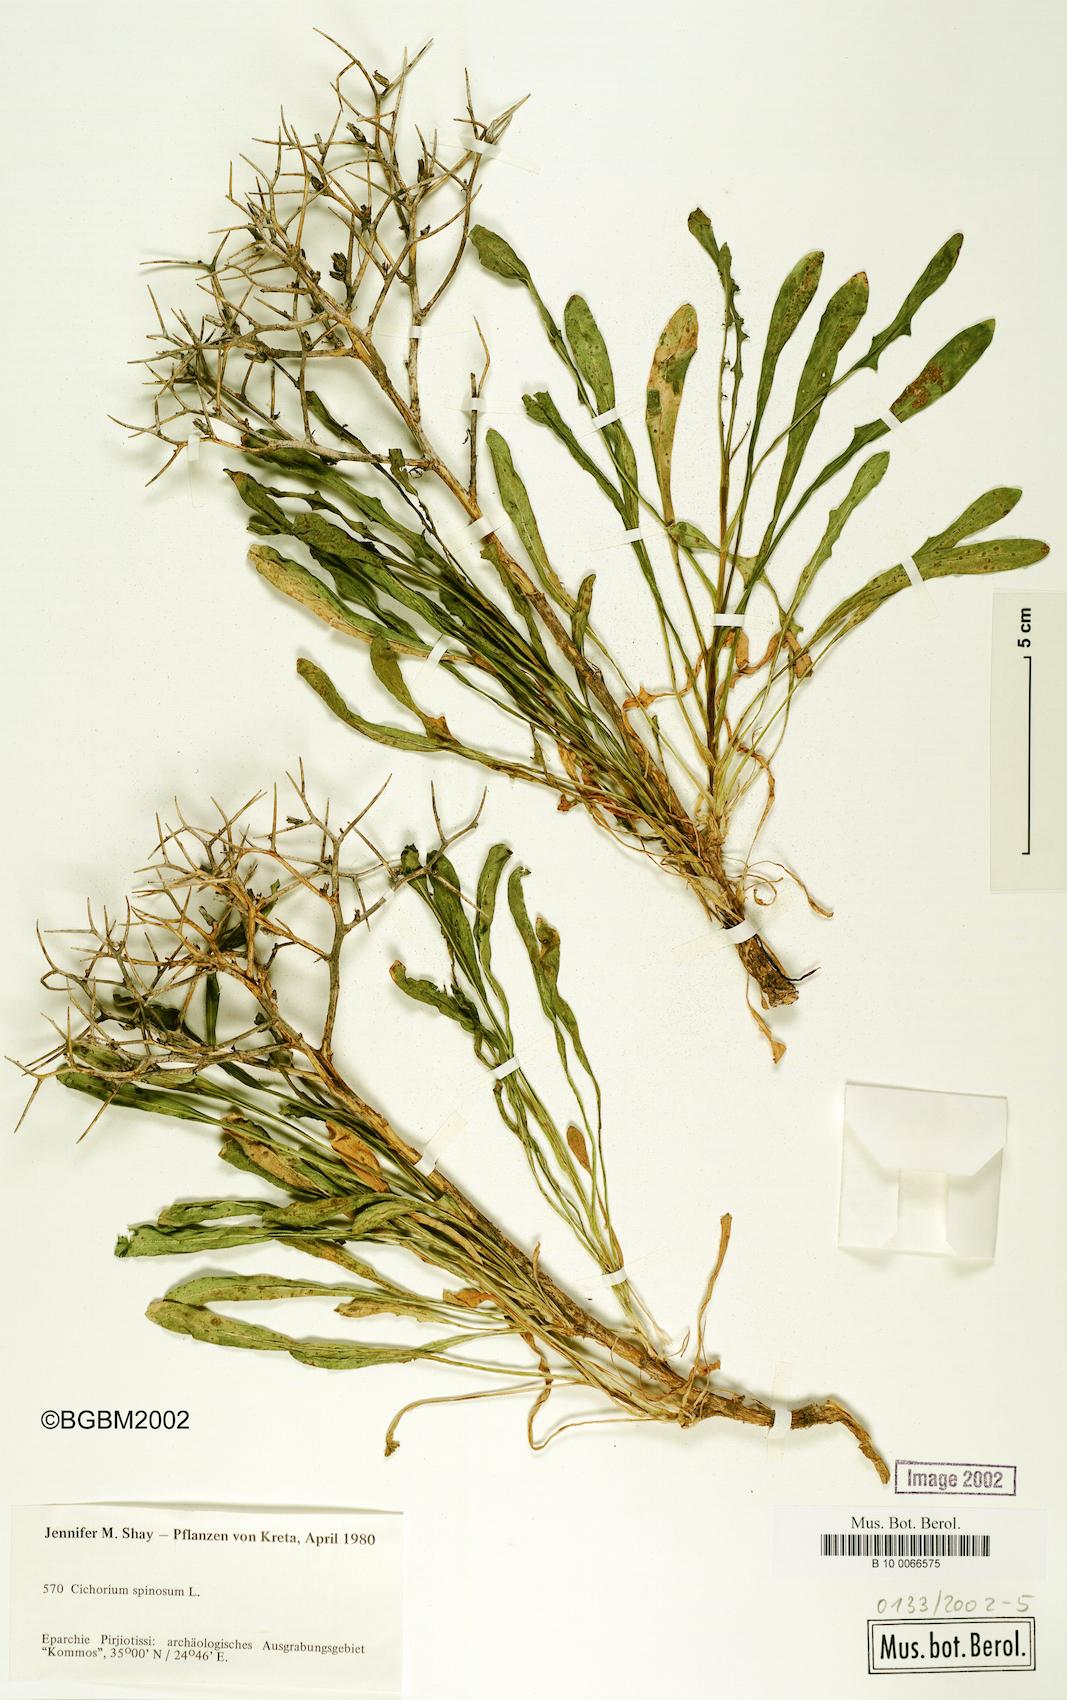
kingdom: Plantae
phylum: Tracheophyta
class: Magnoliopsida
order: Asterales
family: Asteraceae
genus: Cichorium
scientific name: Cichorium spinosum
